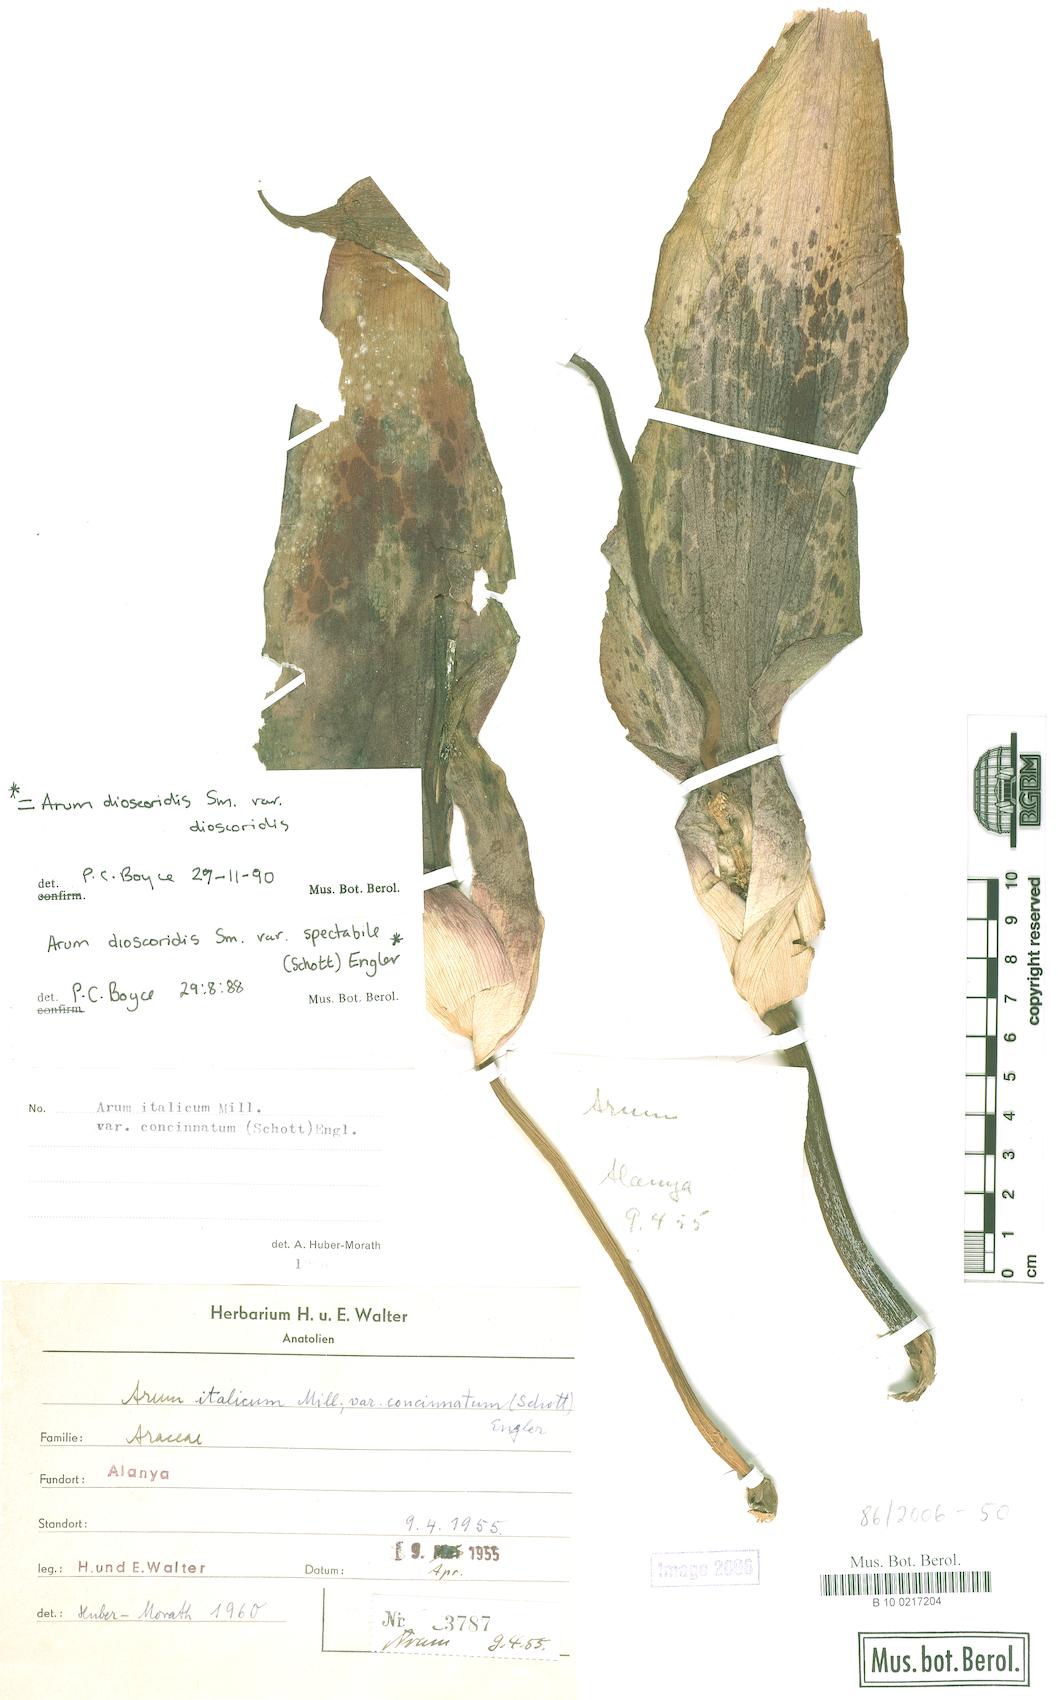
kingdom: Plantae
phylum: Tracheophyta
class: Liliopsida
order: Alismatales
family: Araceae
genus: Arum
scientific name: Arum dioscoridis
